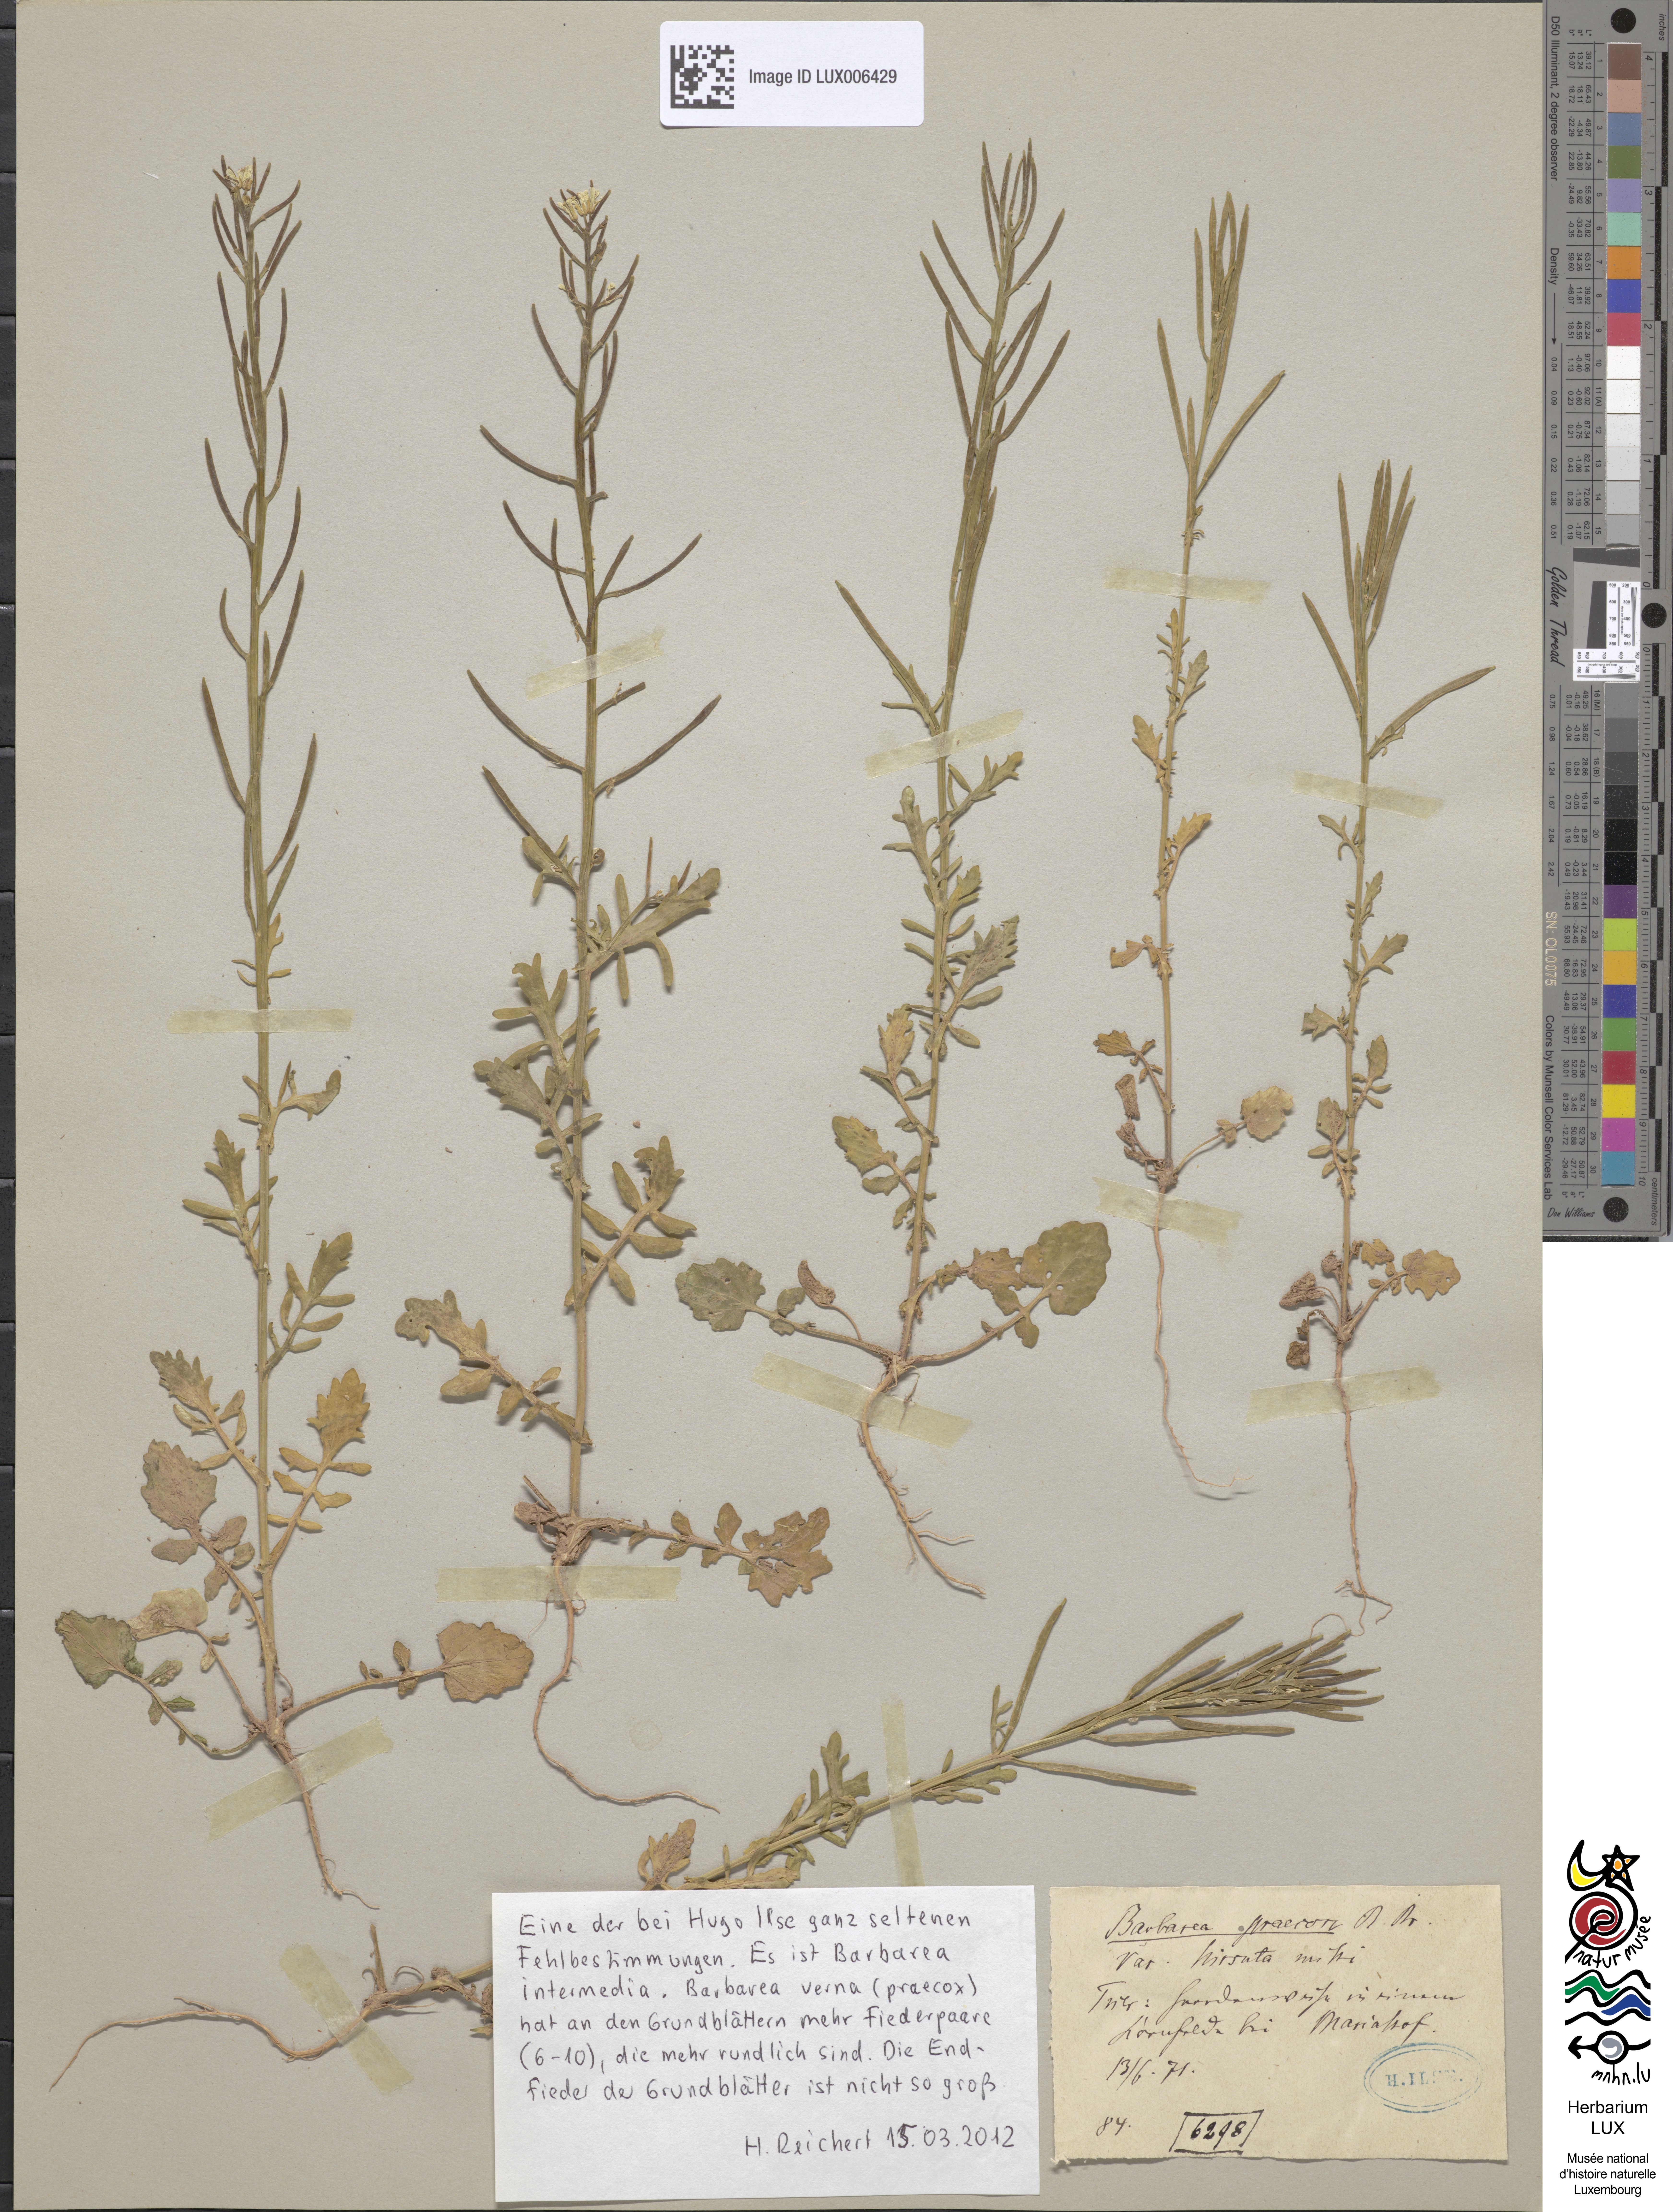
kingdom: Plantae
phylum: Tracheophyta
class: Magnoliopsida
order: Brassicales
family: Brassicaceae
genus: Barbarea
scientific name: Barbarea intermedia
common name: Medium-flowered winter-cress
